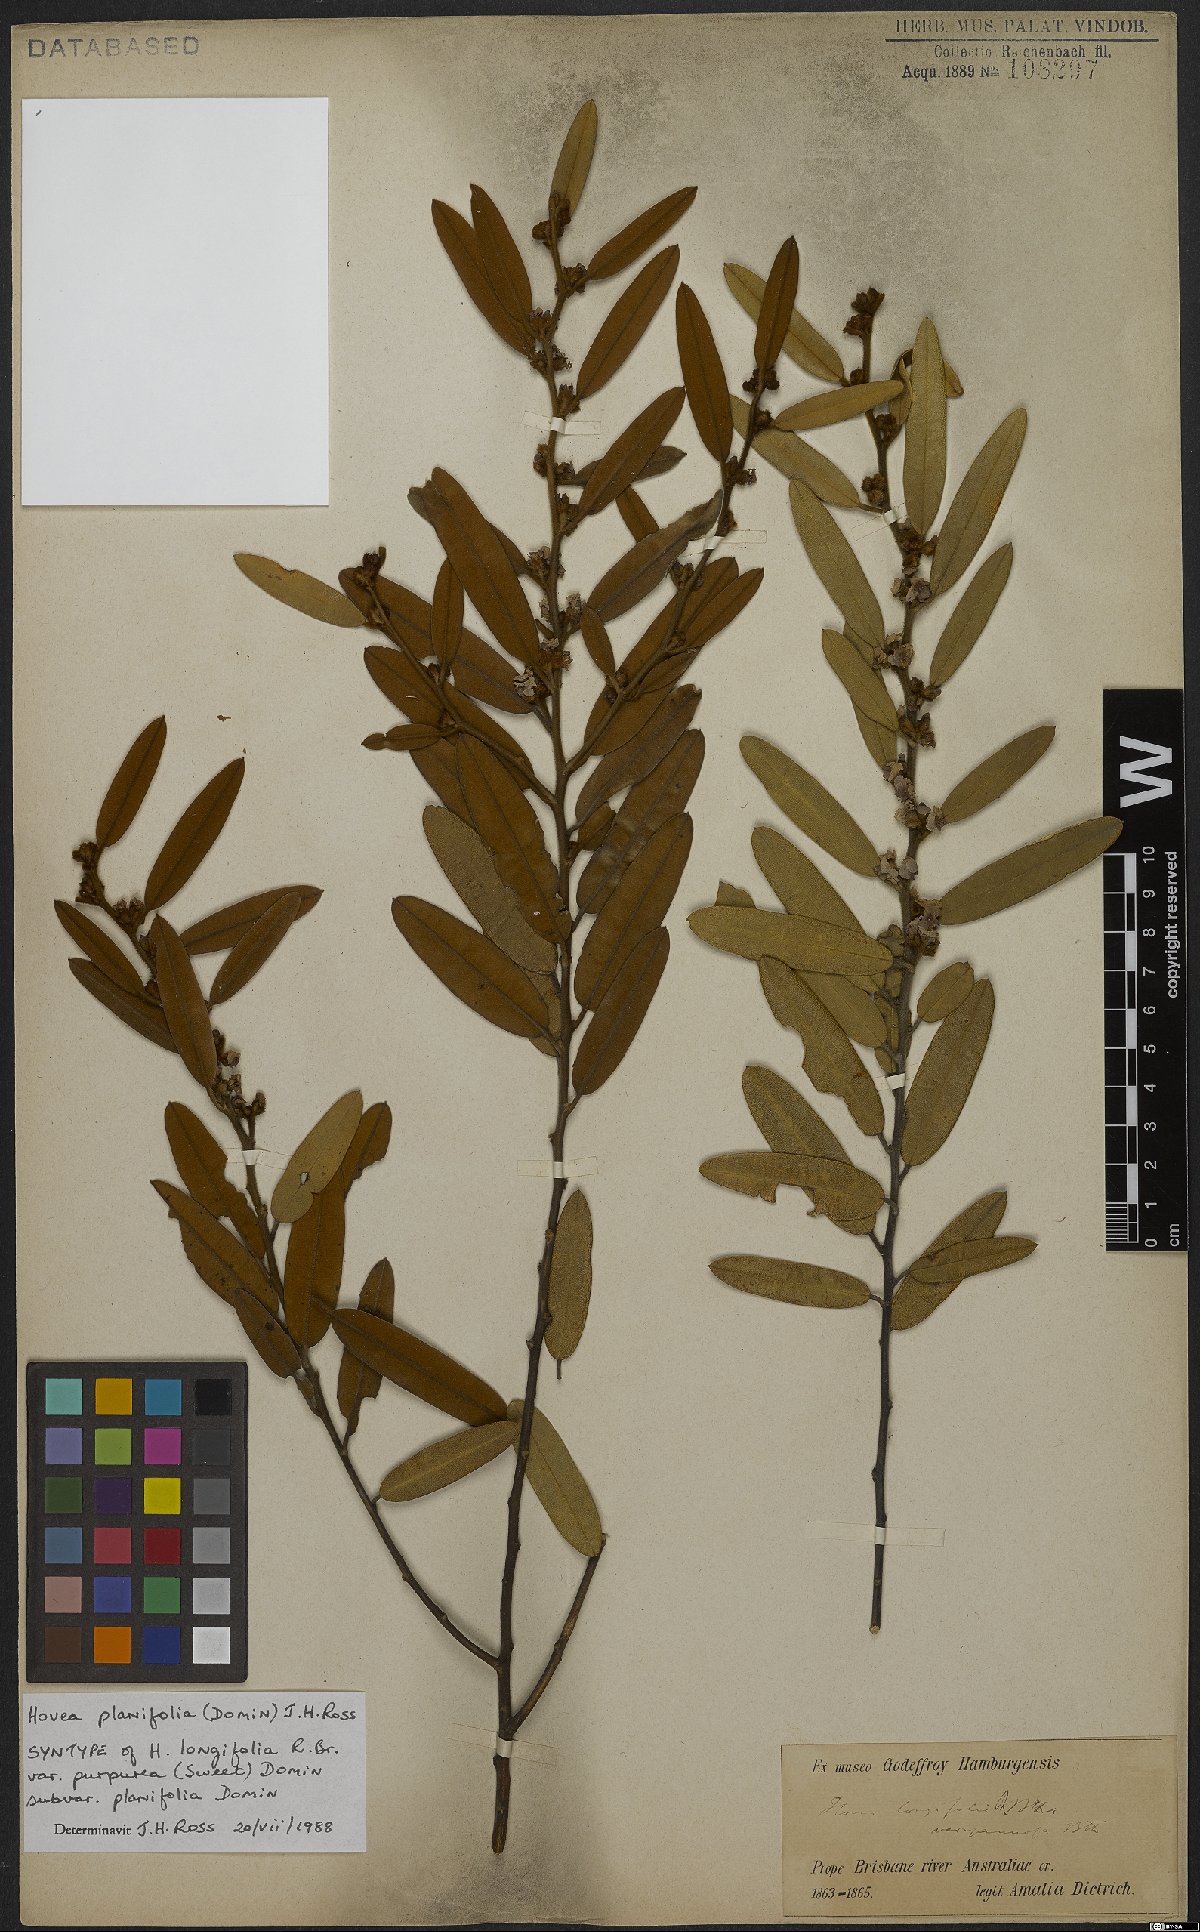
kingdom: Plantae
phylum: Tracheophyta
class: Magnoliopsida
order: Fabales
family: Fabaceae
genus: Hovea
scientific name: Hovea planifolia
